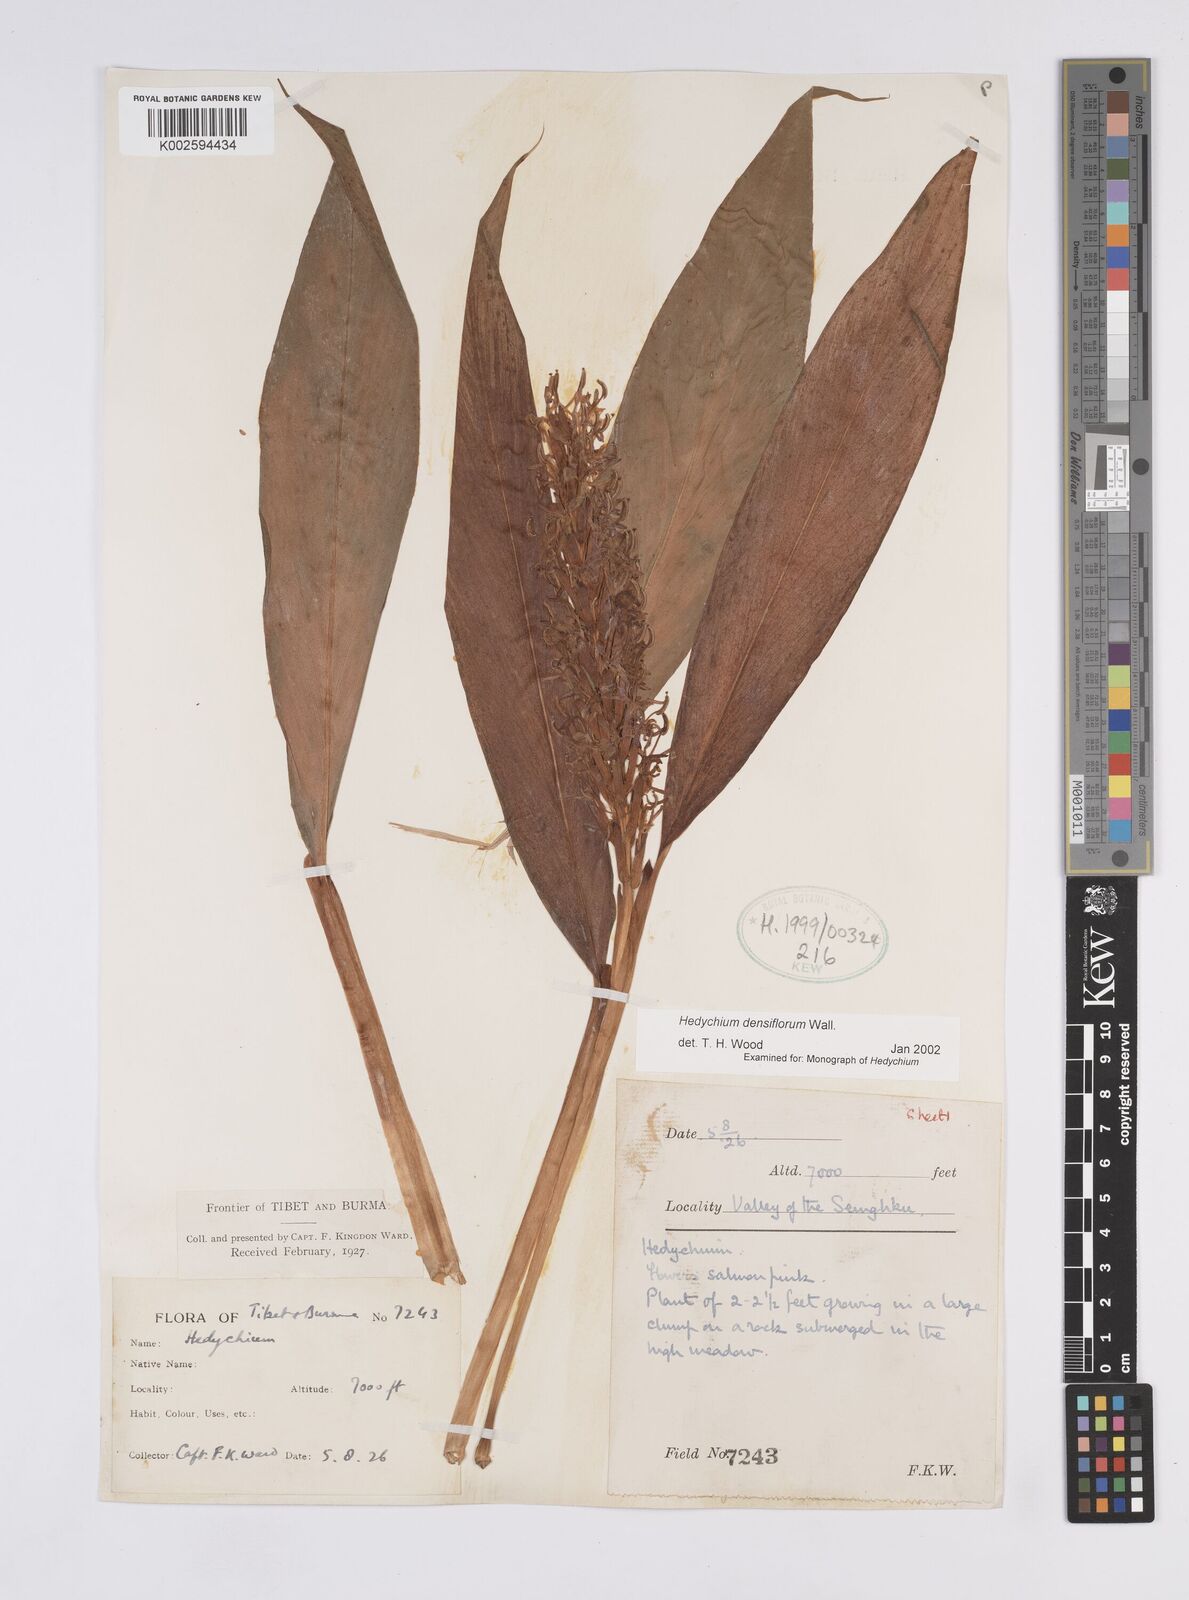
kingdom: Plantae
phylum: Tracheophyta
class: Liliopsida
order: Zingiberales
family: Zingiberaceae
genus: Hedychium
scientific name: Hedychium densiflorum
